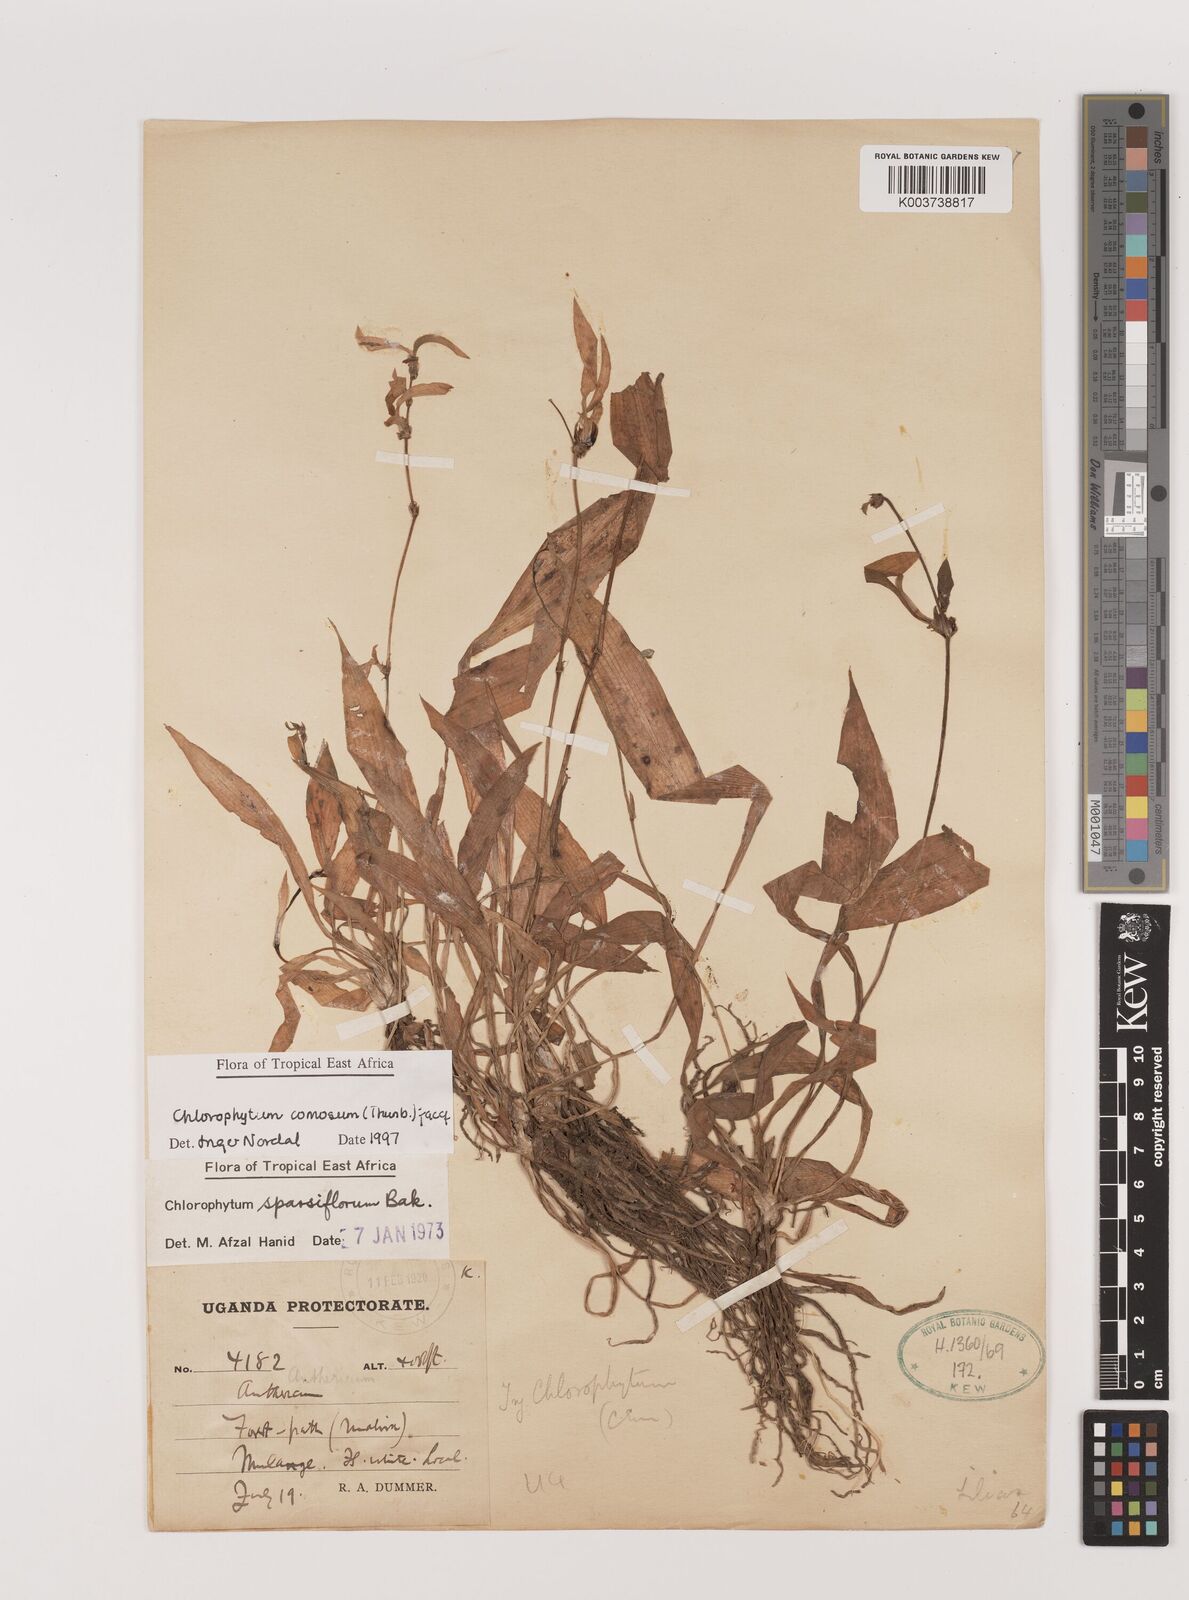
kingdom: Plantae
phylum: Tracheophyta
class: Liliopsida
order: Asparagales
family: Asparagaceae
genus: Chlorophytum
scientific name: Chlorophytum comosum
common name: Spider plant
